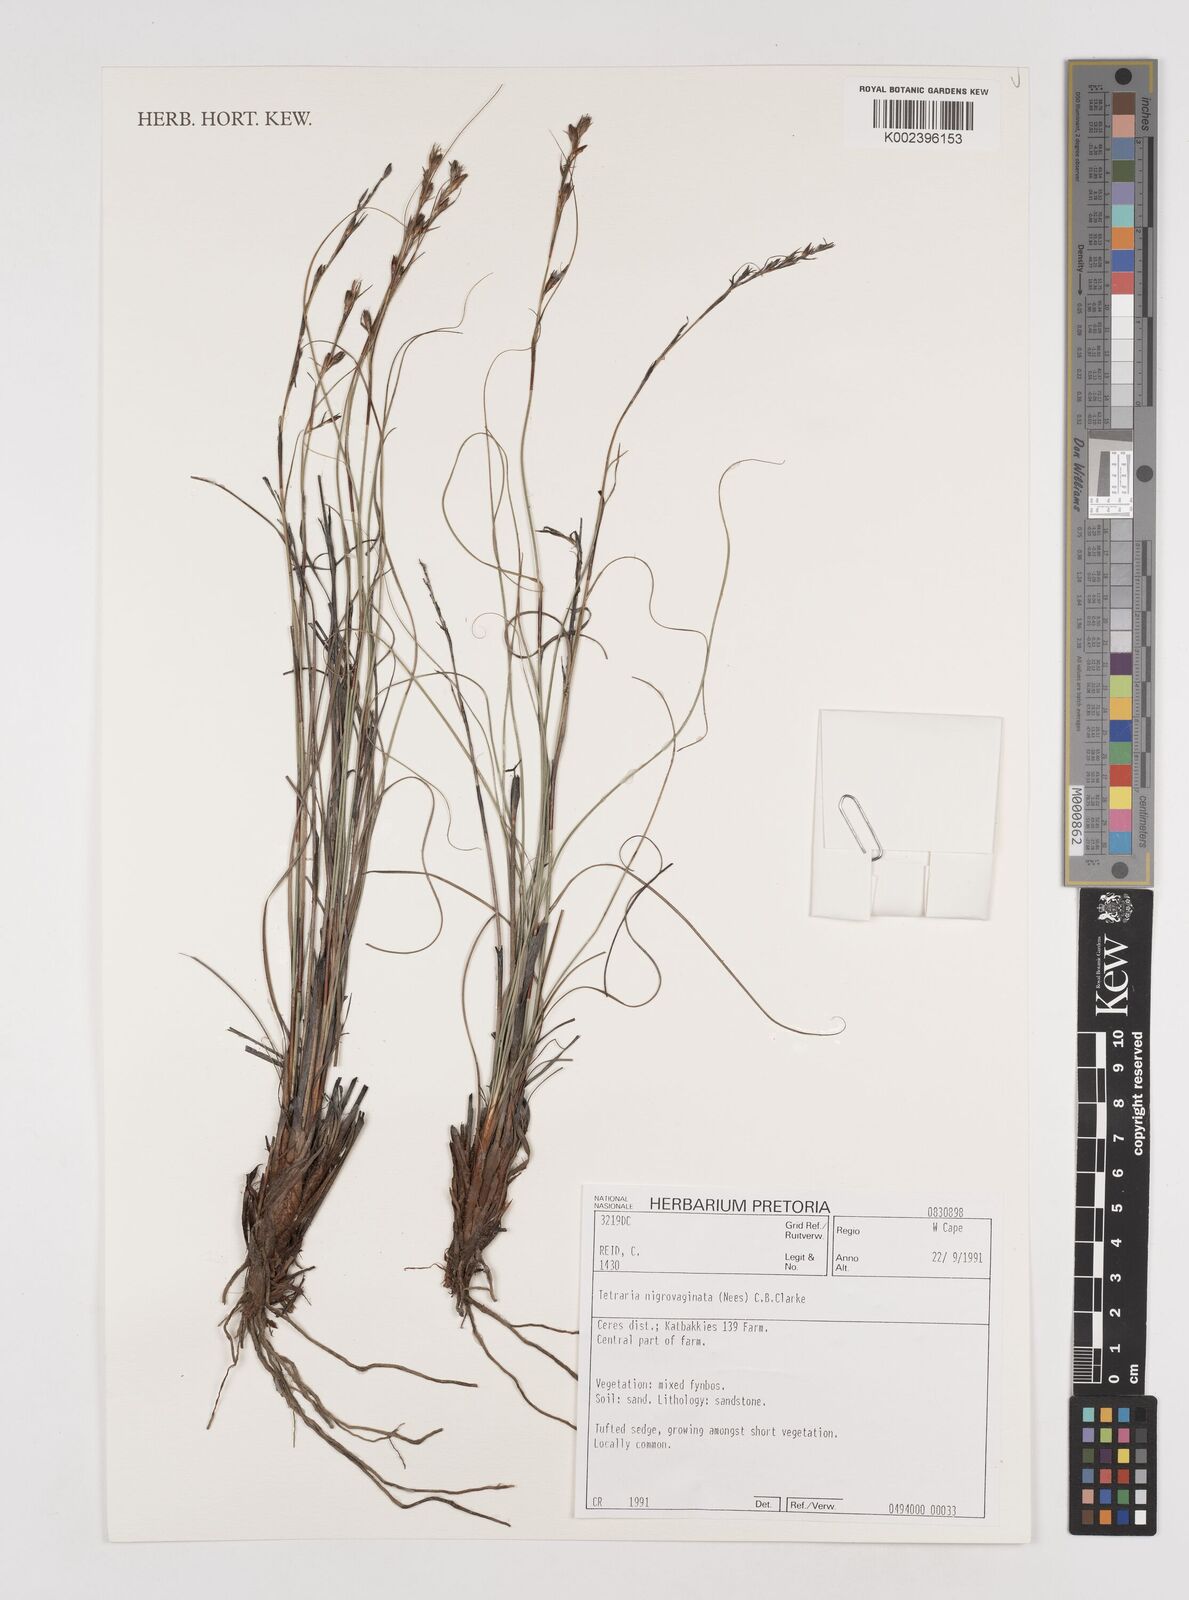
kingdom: Plantae
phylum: Tracheophyta
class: Liliopsida
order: Poales
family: Cyperaceae
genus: Tetraria
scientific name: Tetraria nigrovaginata
